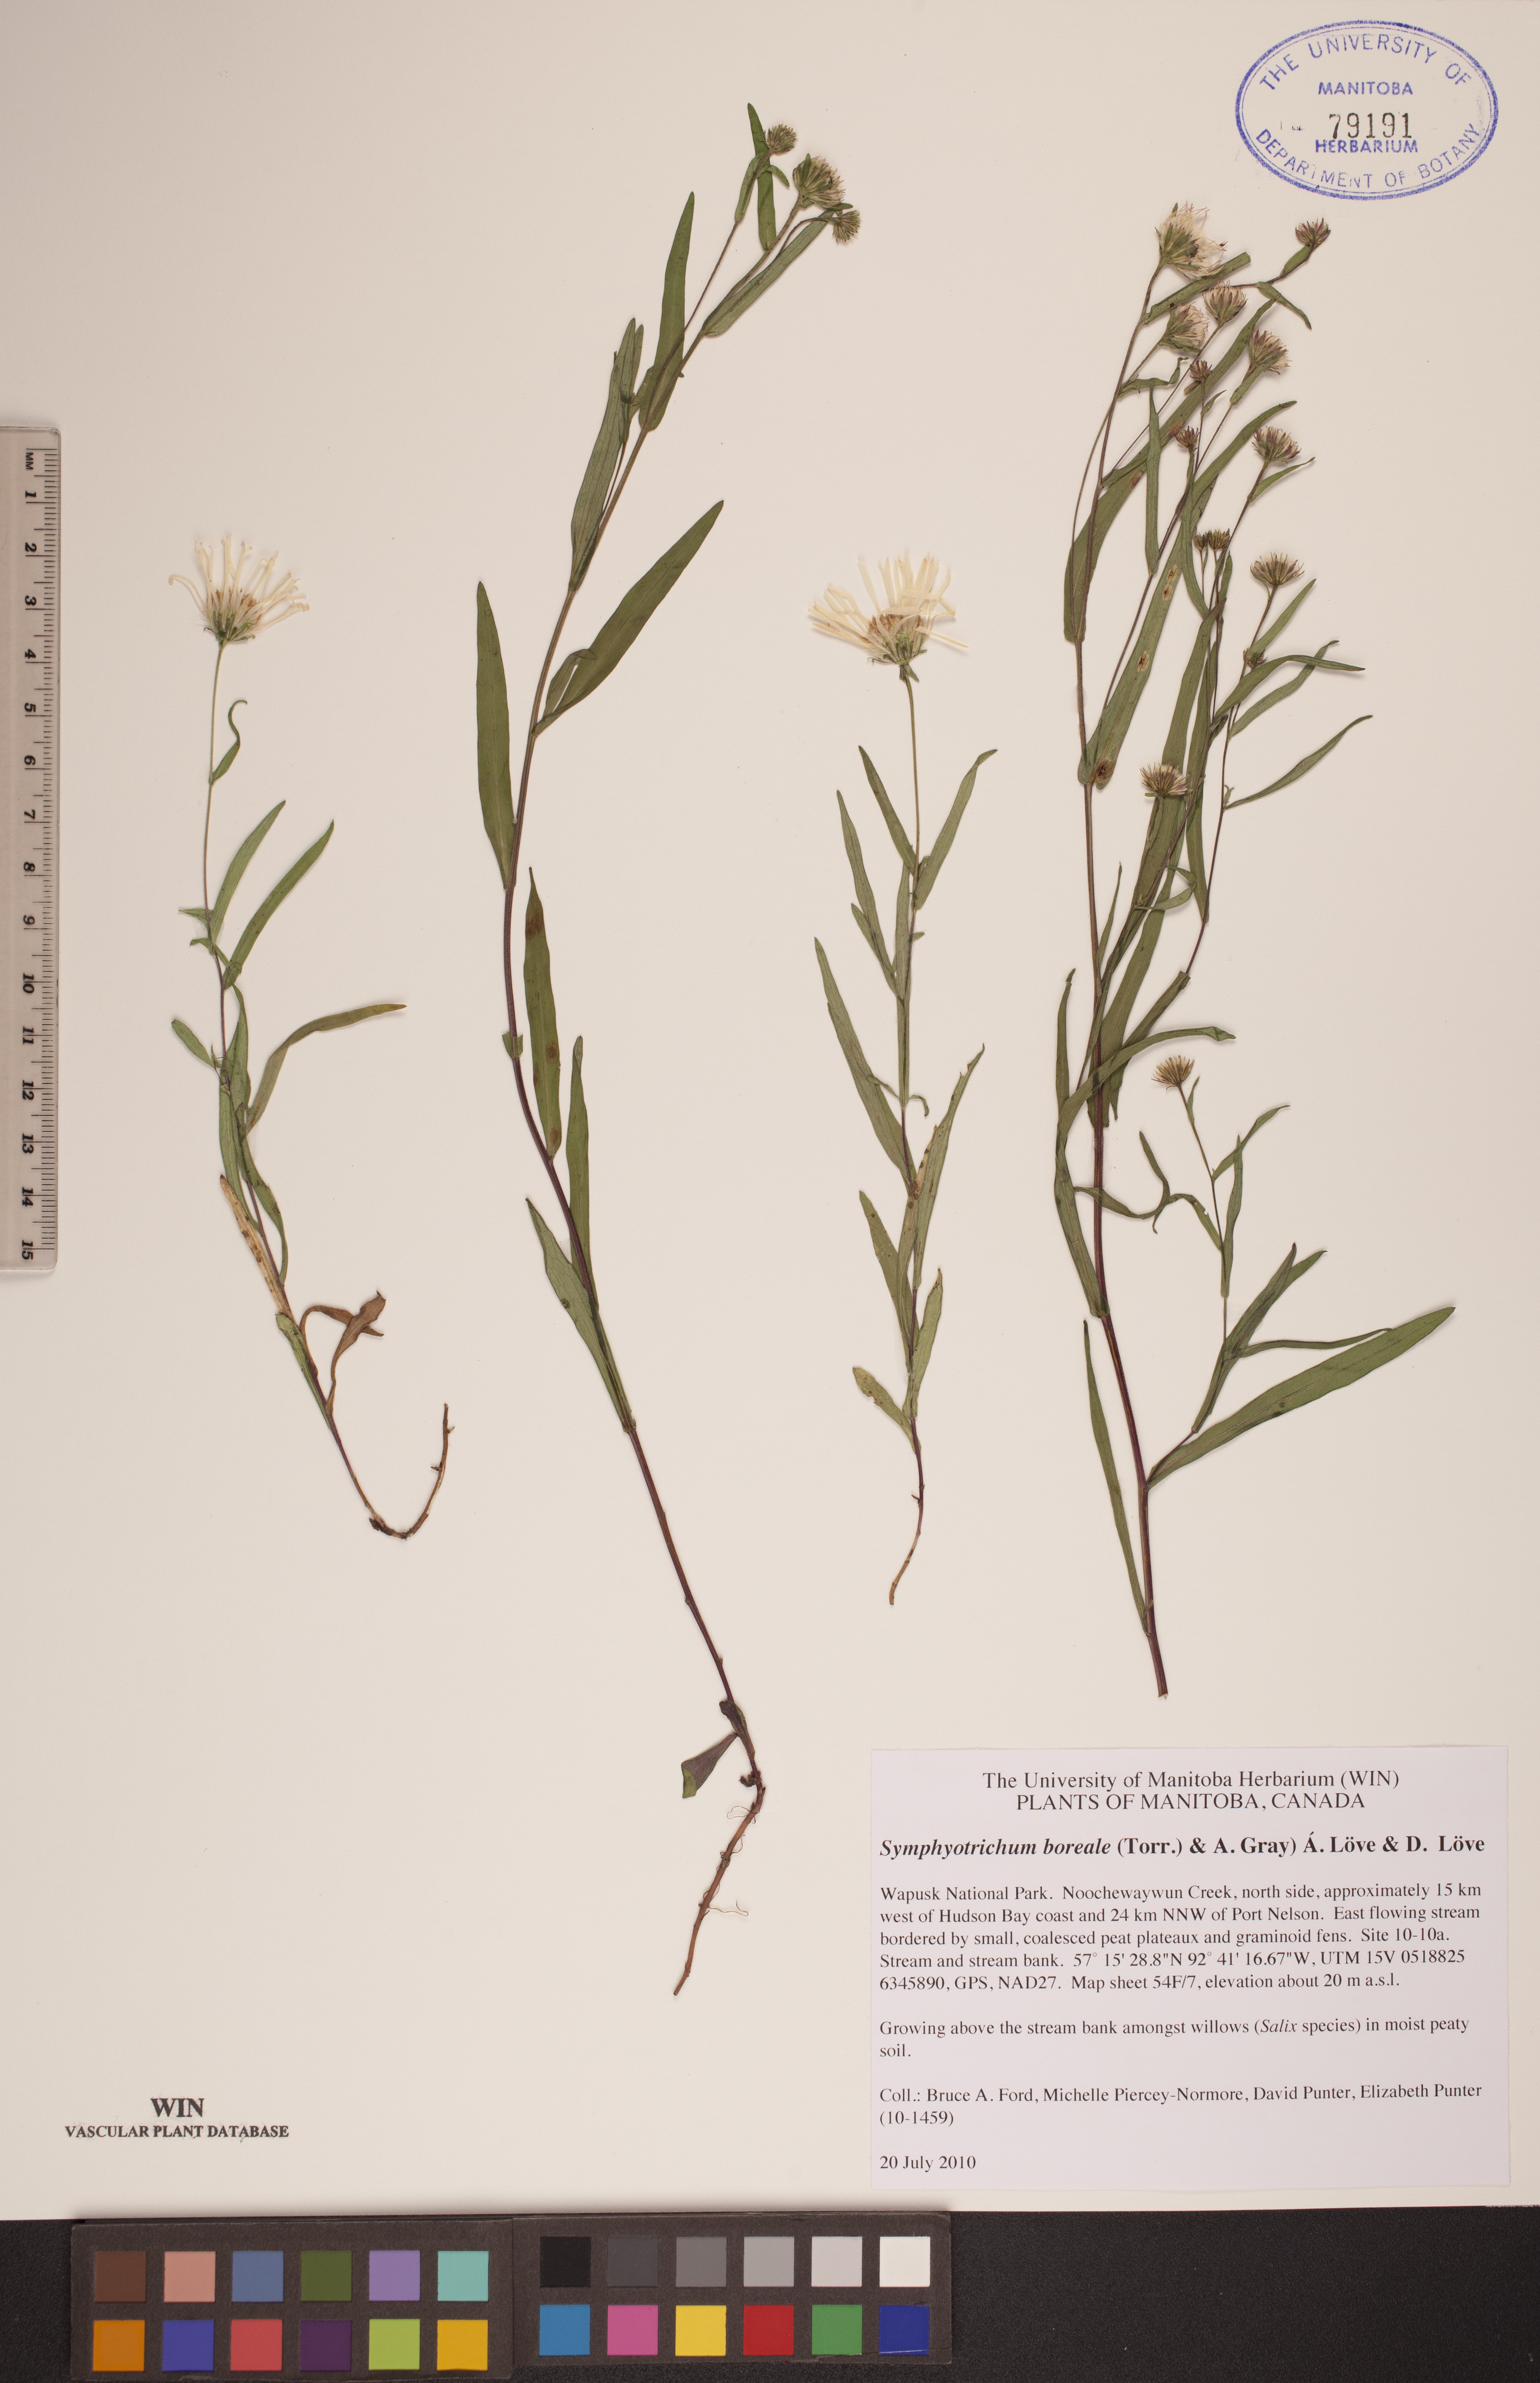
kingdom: Plantae
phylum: Tracheophyta
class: Magnoliopsida
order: Asterales
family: Asteraceae
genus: Symphyotrichum
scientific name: Symphyotrichum boreale
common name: Northern bog aster
